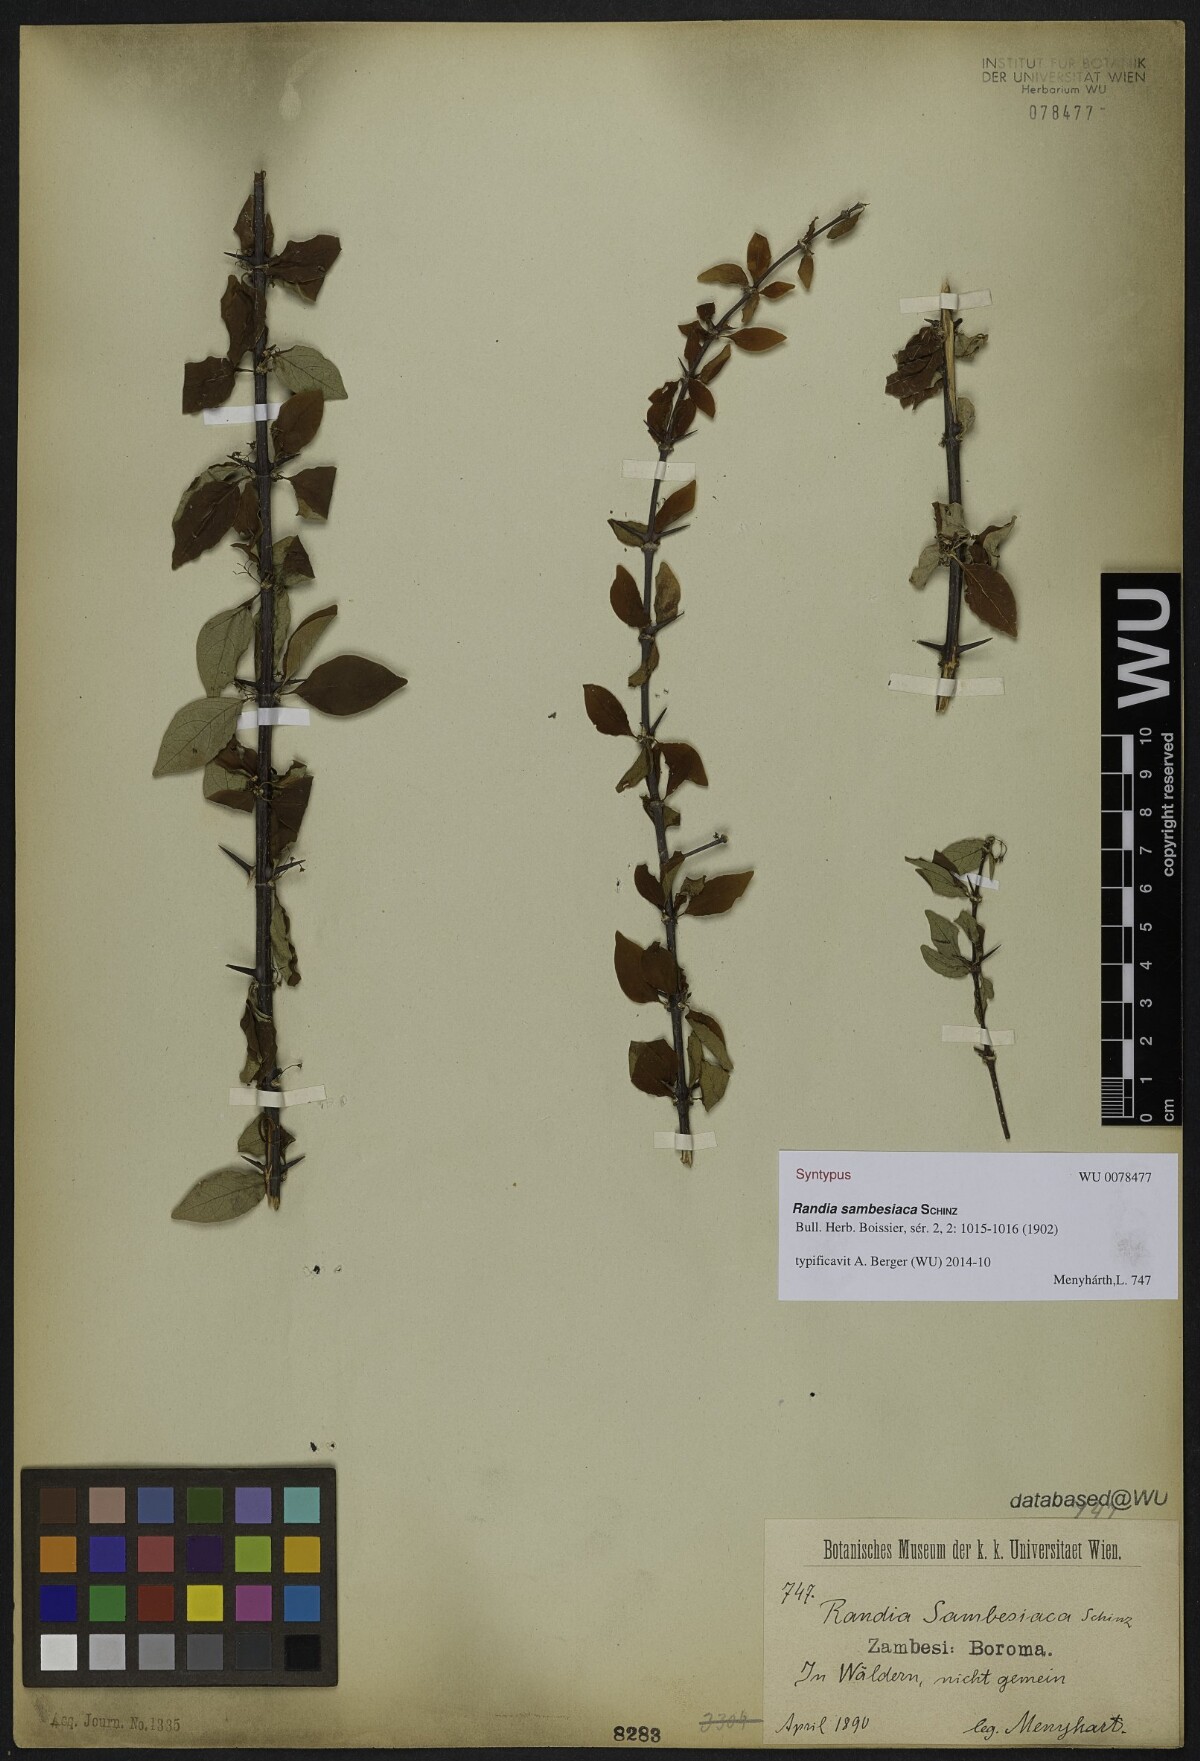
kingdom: Plantae
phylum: Tracheophyta
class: Magnoliopsida
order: Gentianales
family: Rubiaceae
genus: Randia
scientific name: Randia sambesiaca
